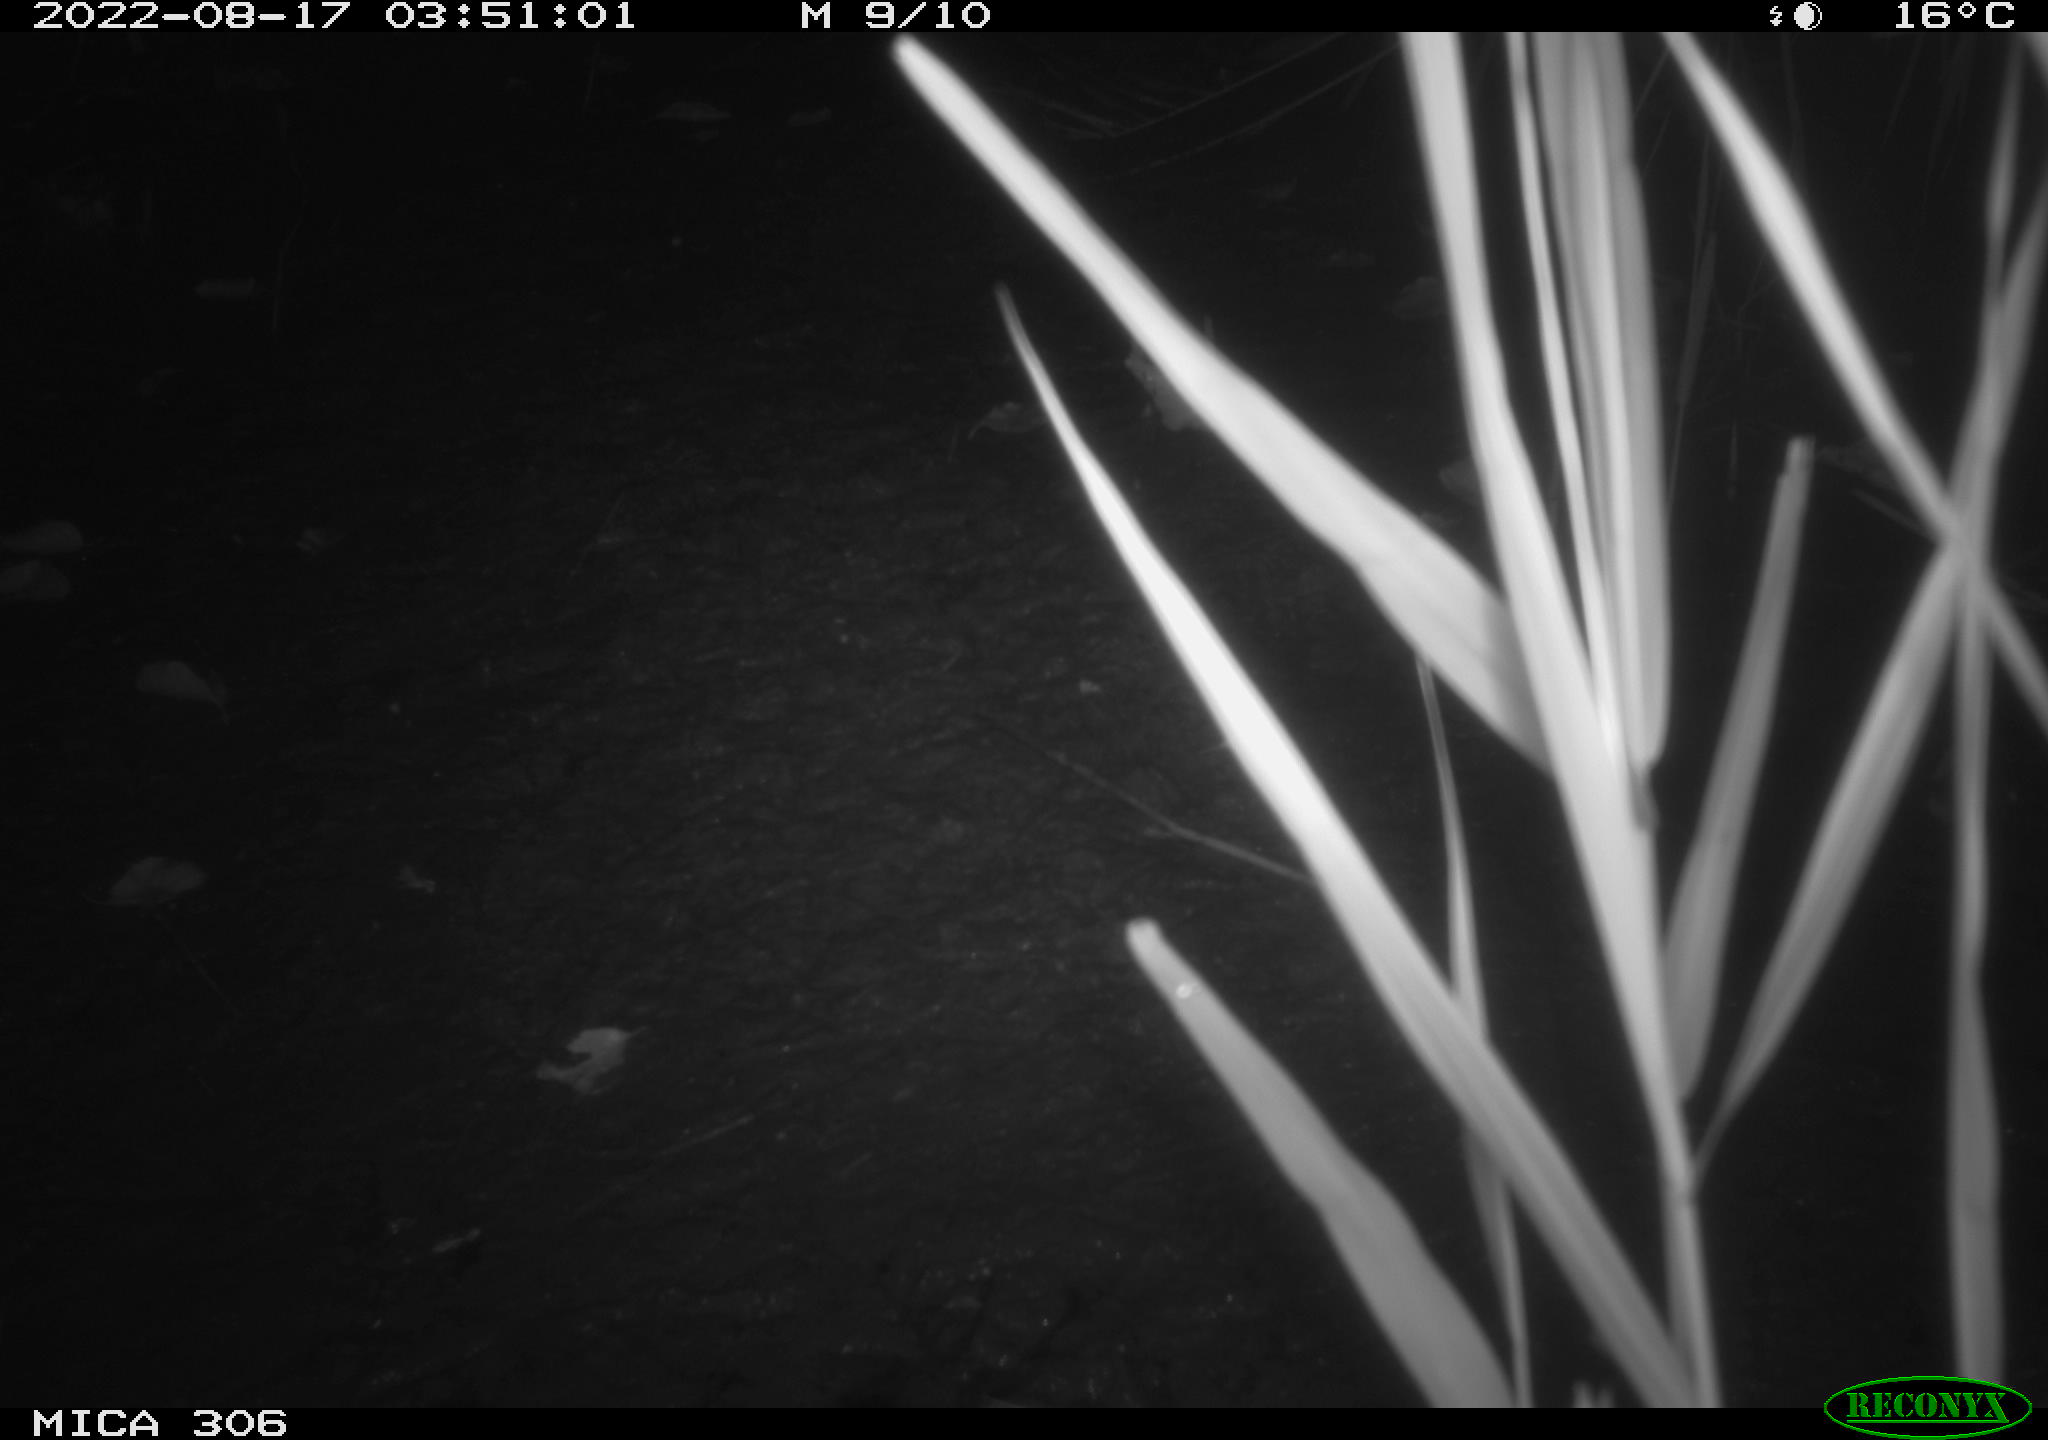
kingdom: Animalia
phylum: Chordata
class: Mammalia
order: Rodentia
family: Muridae
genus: Rattus
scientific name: Rattus norvegicus
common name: Brown rat
